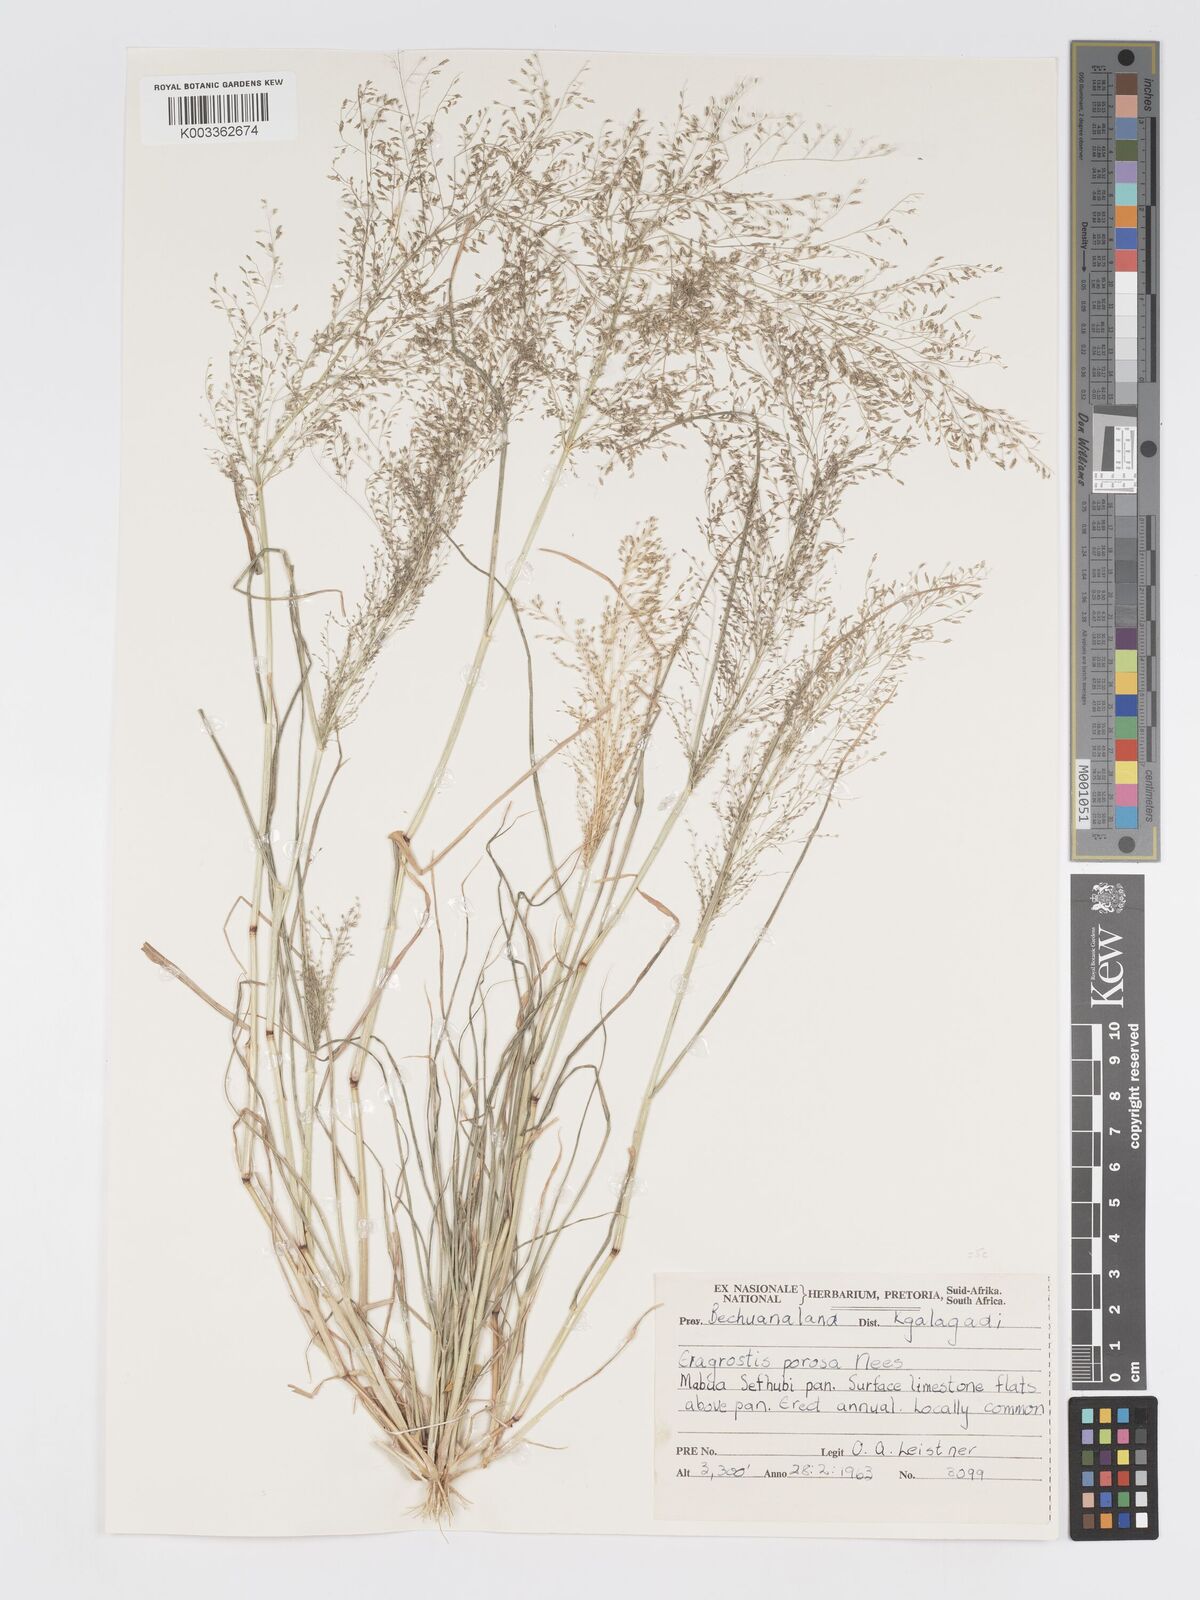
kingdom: Plantae
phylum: Tracheophyta
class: Liliopsida
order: Poales
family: Poaceae
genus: Eragrostis
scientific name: Eragrostis porosa
